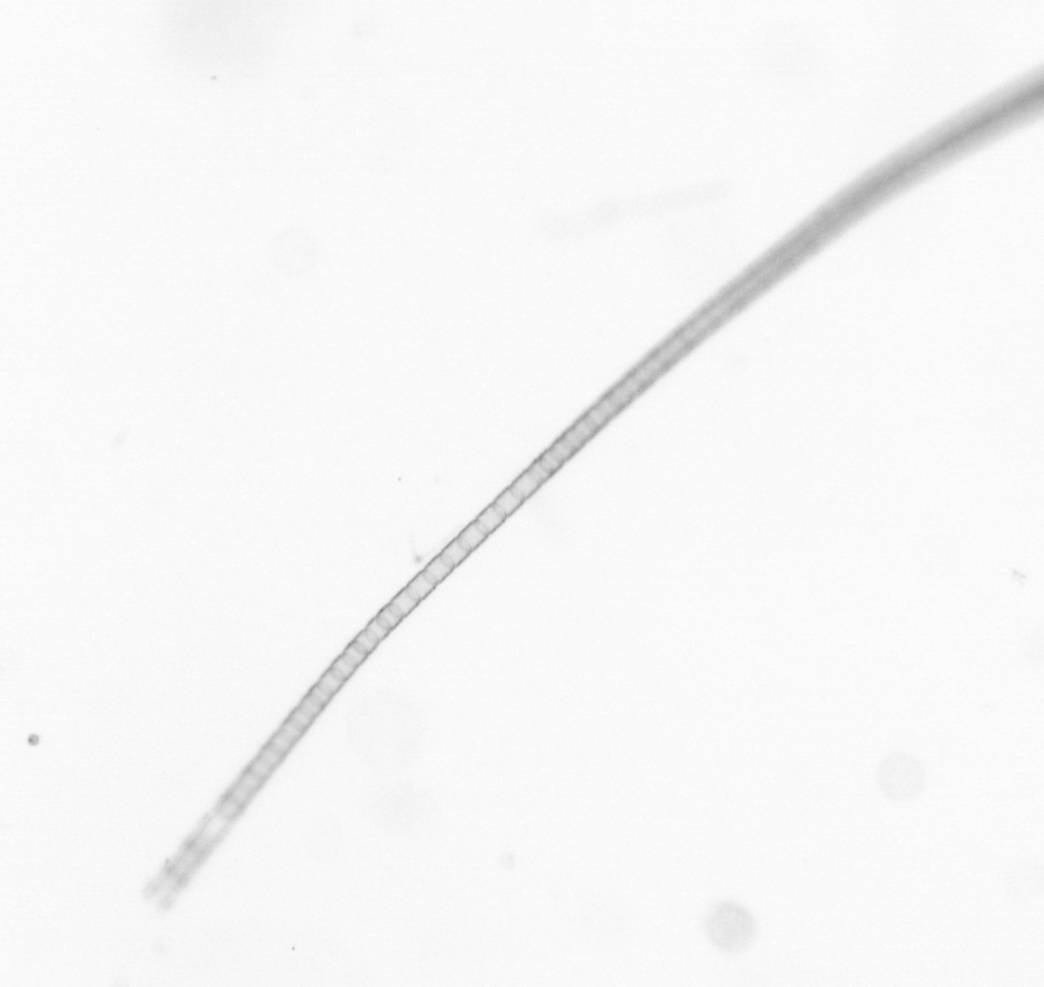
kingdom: Chromista
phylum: Ochrophyta
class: Bacillariophyceae
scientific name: Bacillariophyceae
